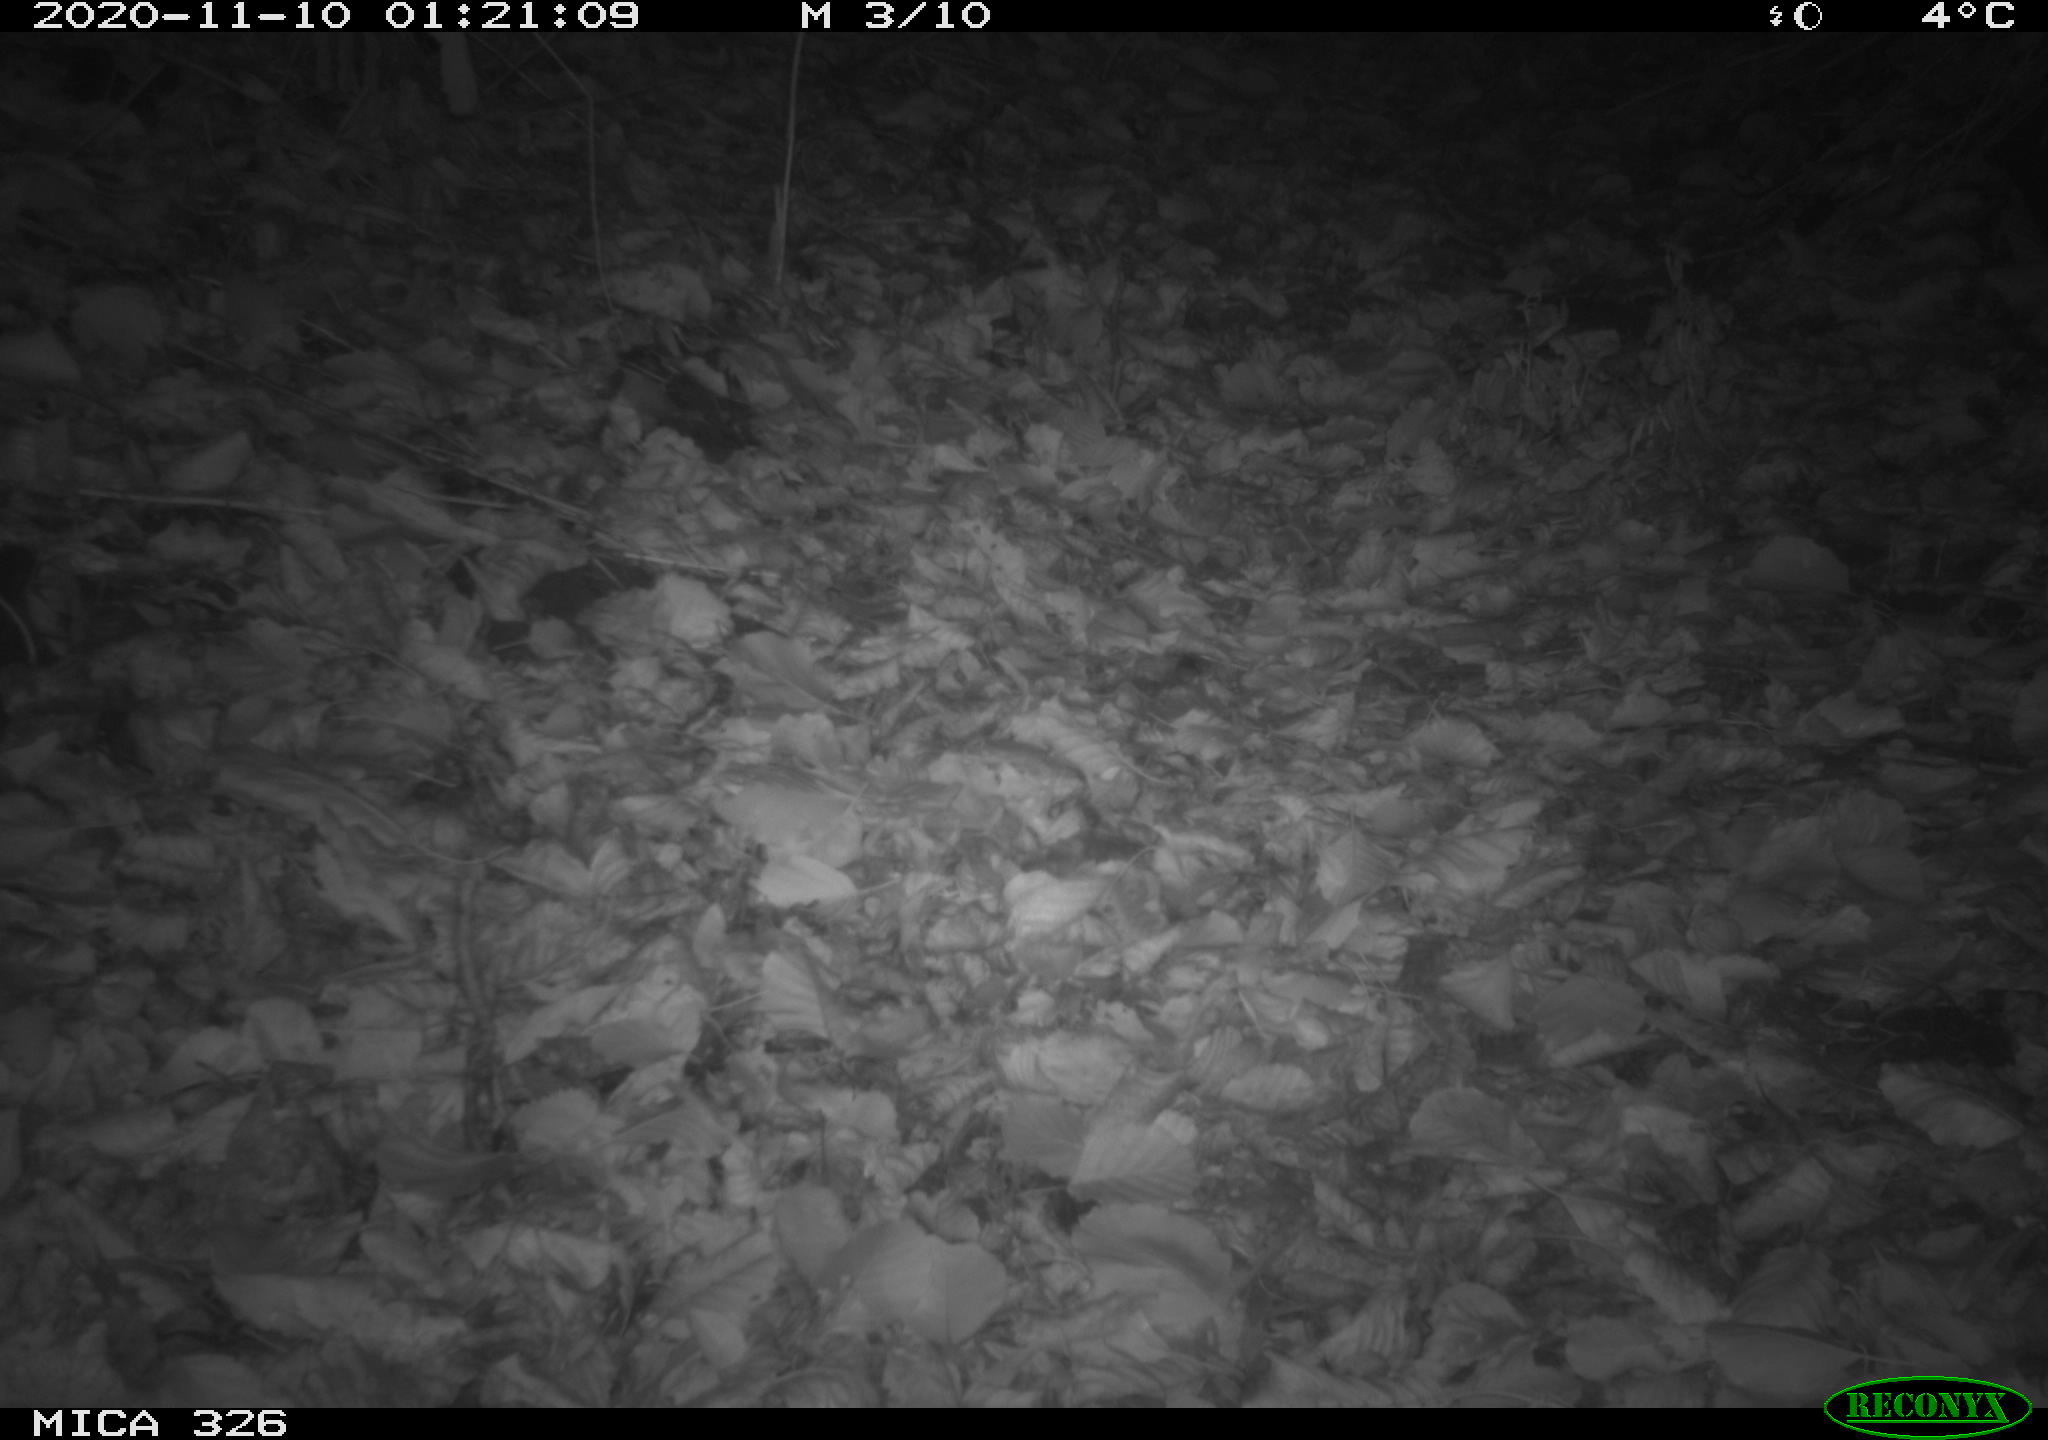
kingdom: Animalia
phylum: Chordata
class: Mammalia
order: Rodentia
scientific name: Rodentia
